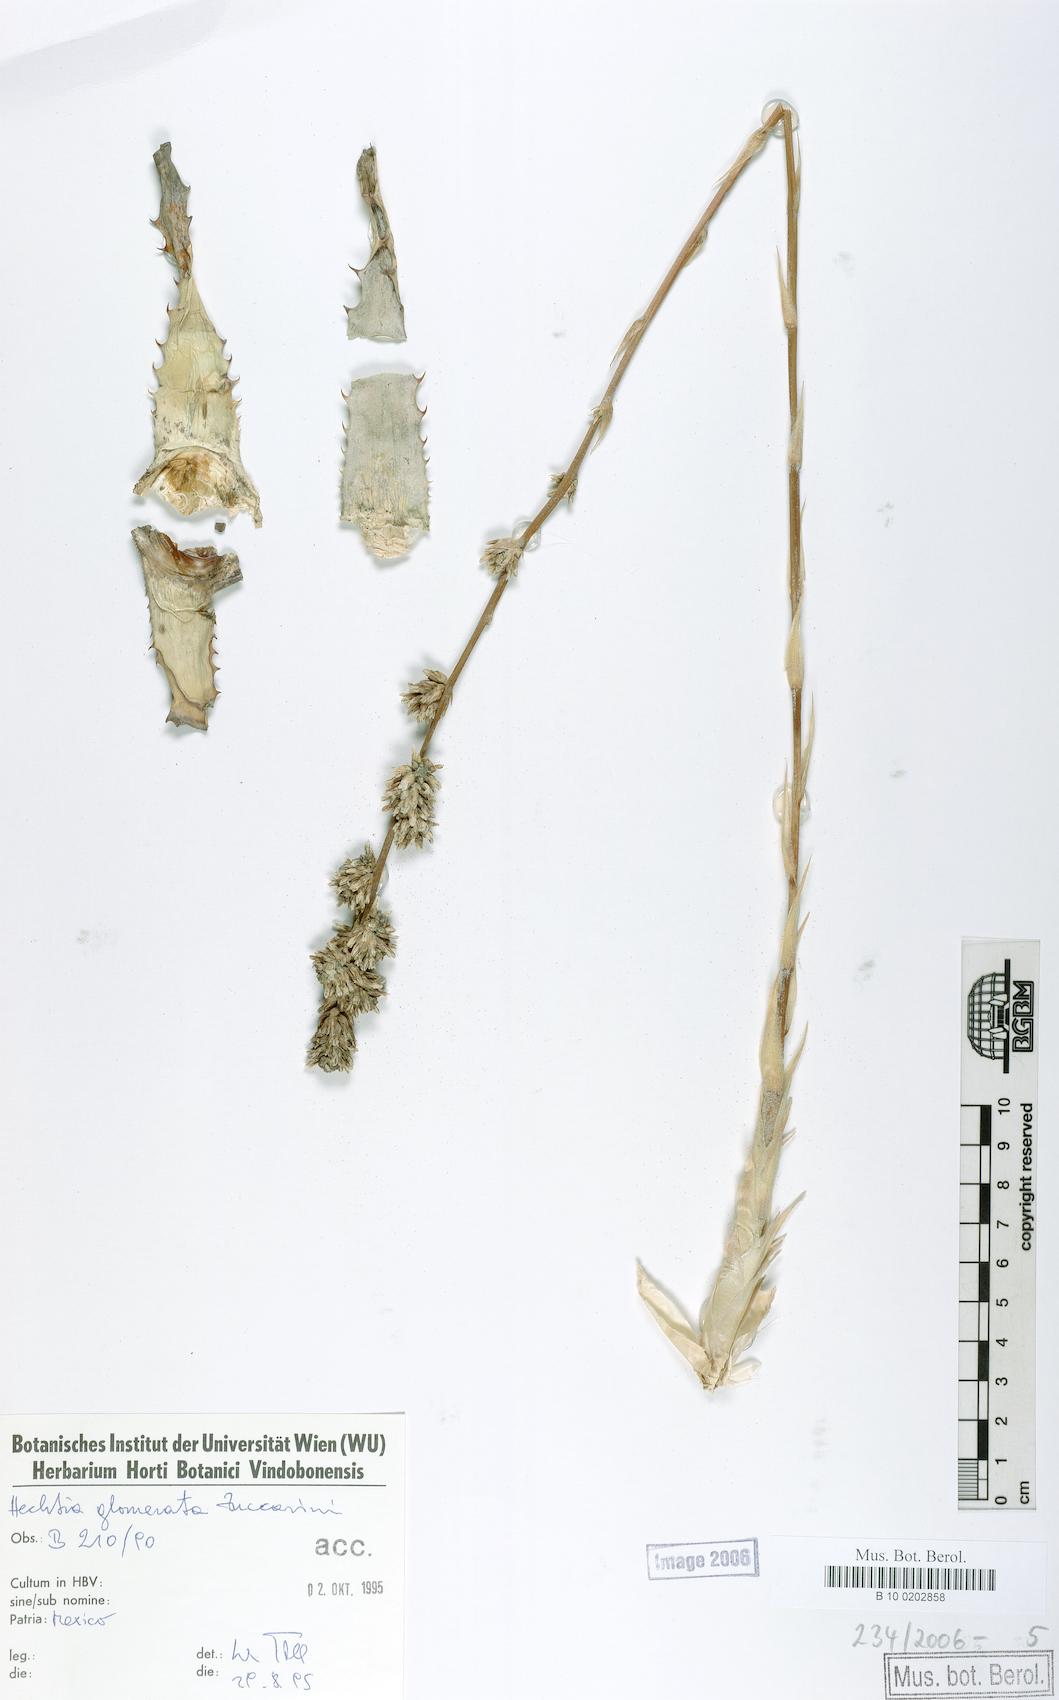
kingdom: Plantae
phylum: Tracheophyta
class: Liliopsida
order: Poales
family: Bromeliaceae
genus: Hechtia
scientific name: Hechtia glomerata
